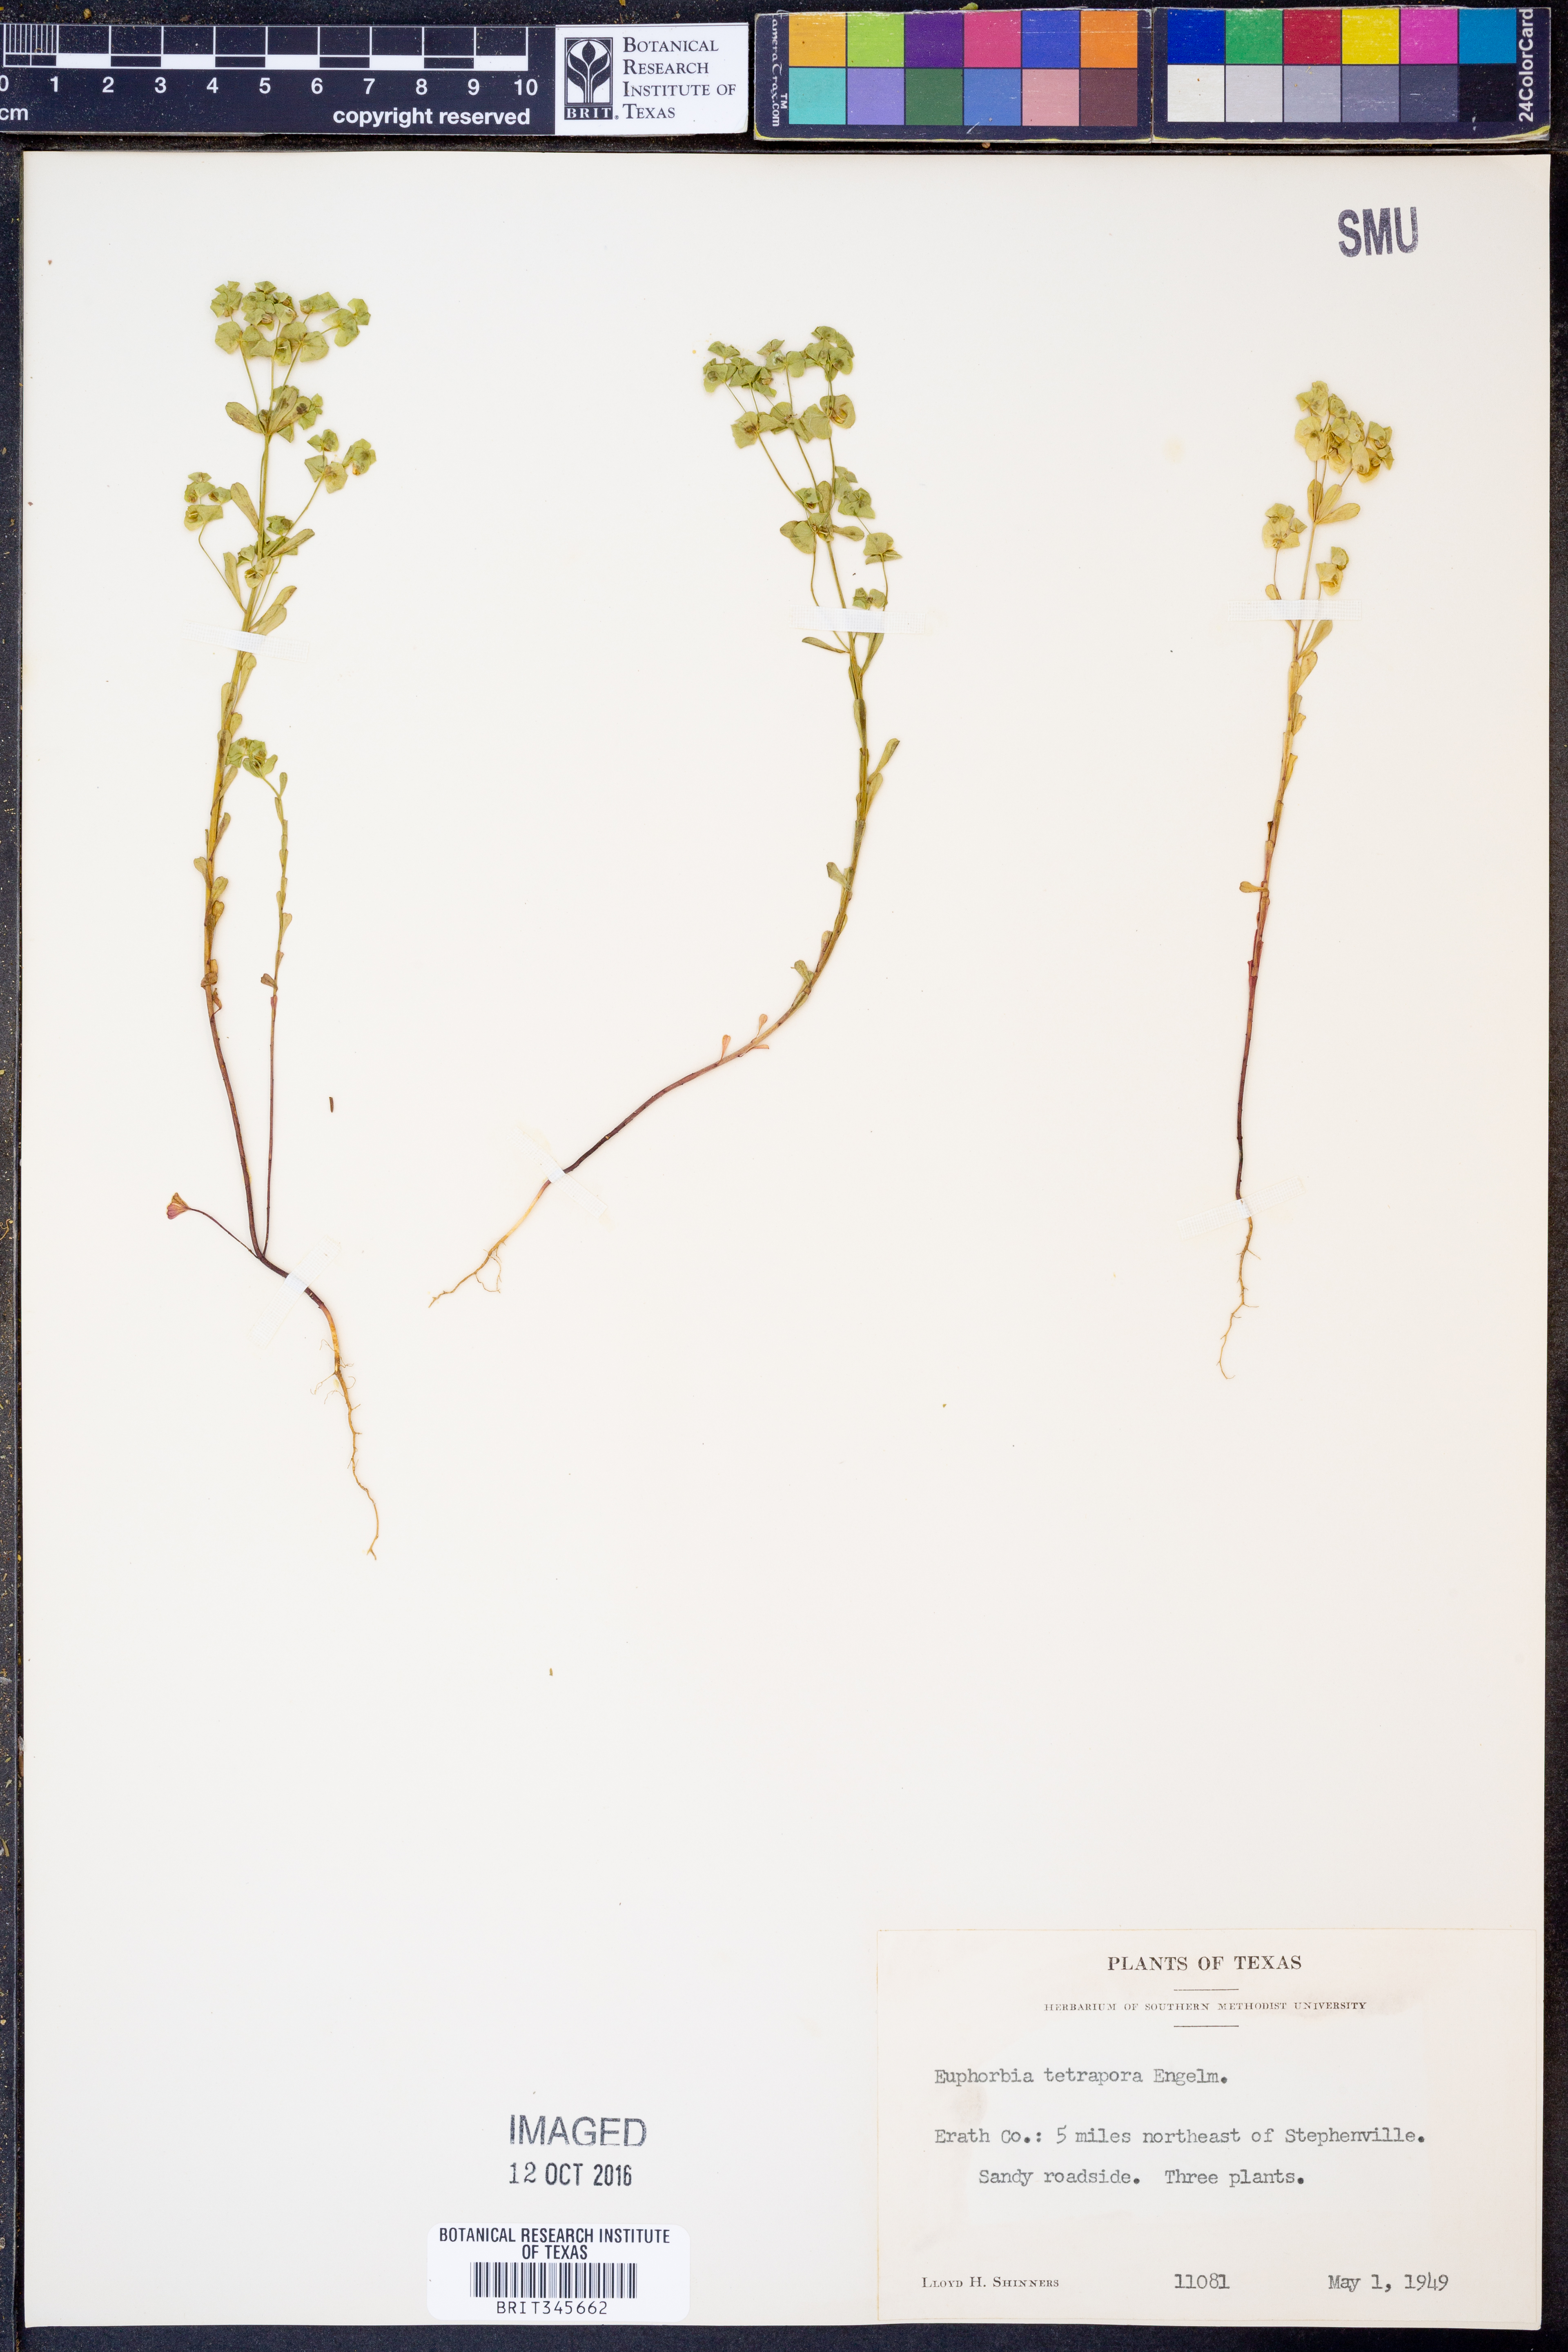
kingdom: Plantae
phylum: Tracheophyta
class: Magnoliopsida
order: Malpighiales
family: Euphorbiaceae
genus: Euphorbia
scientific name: Euphorbia tetrapora
